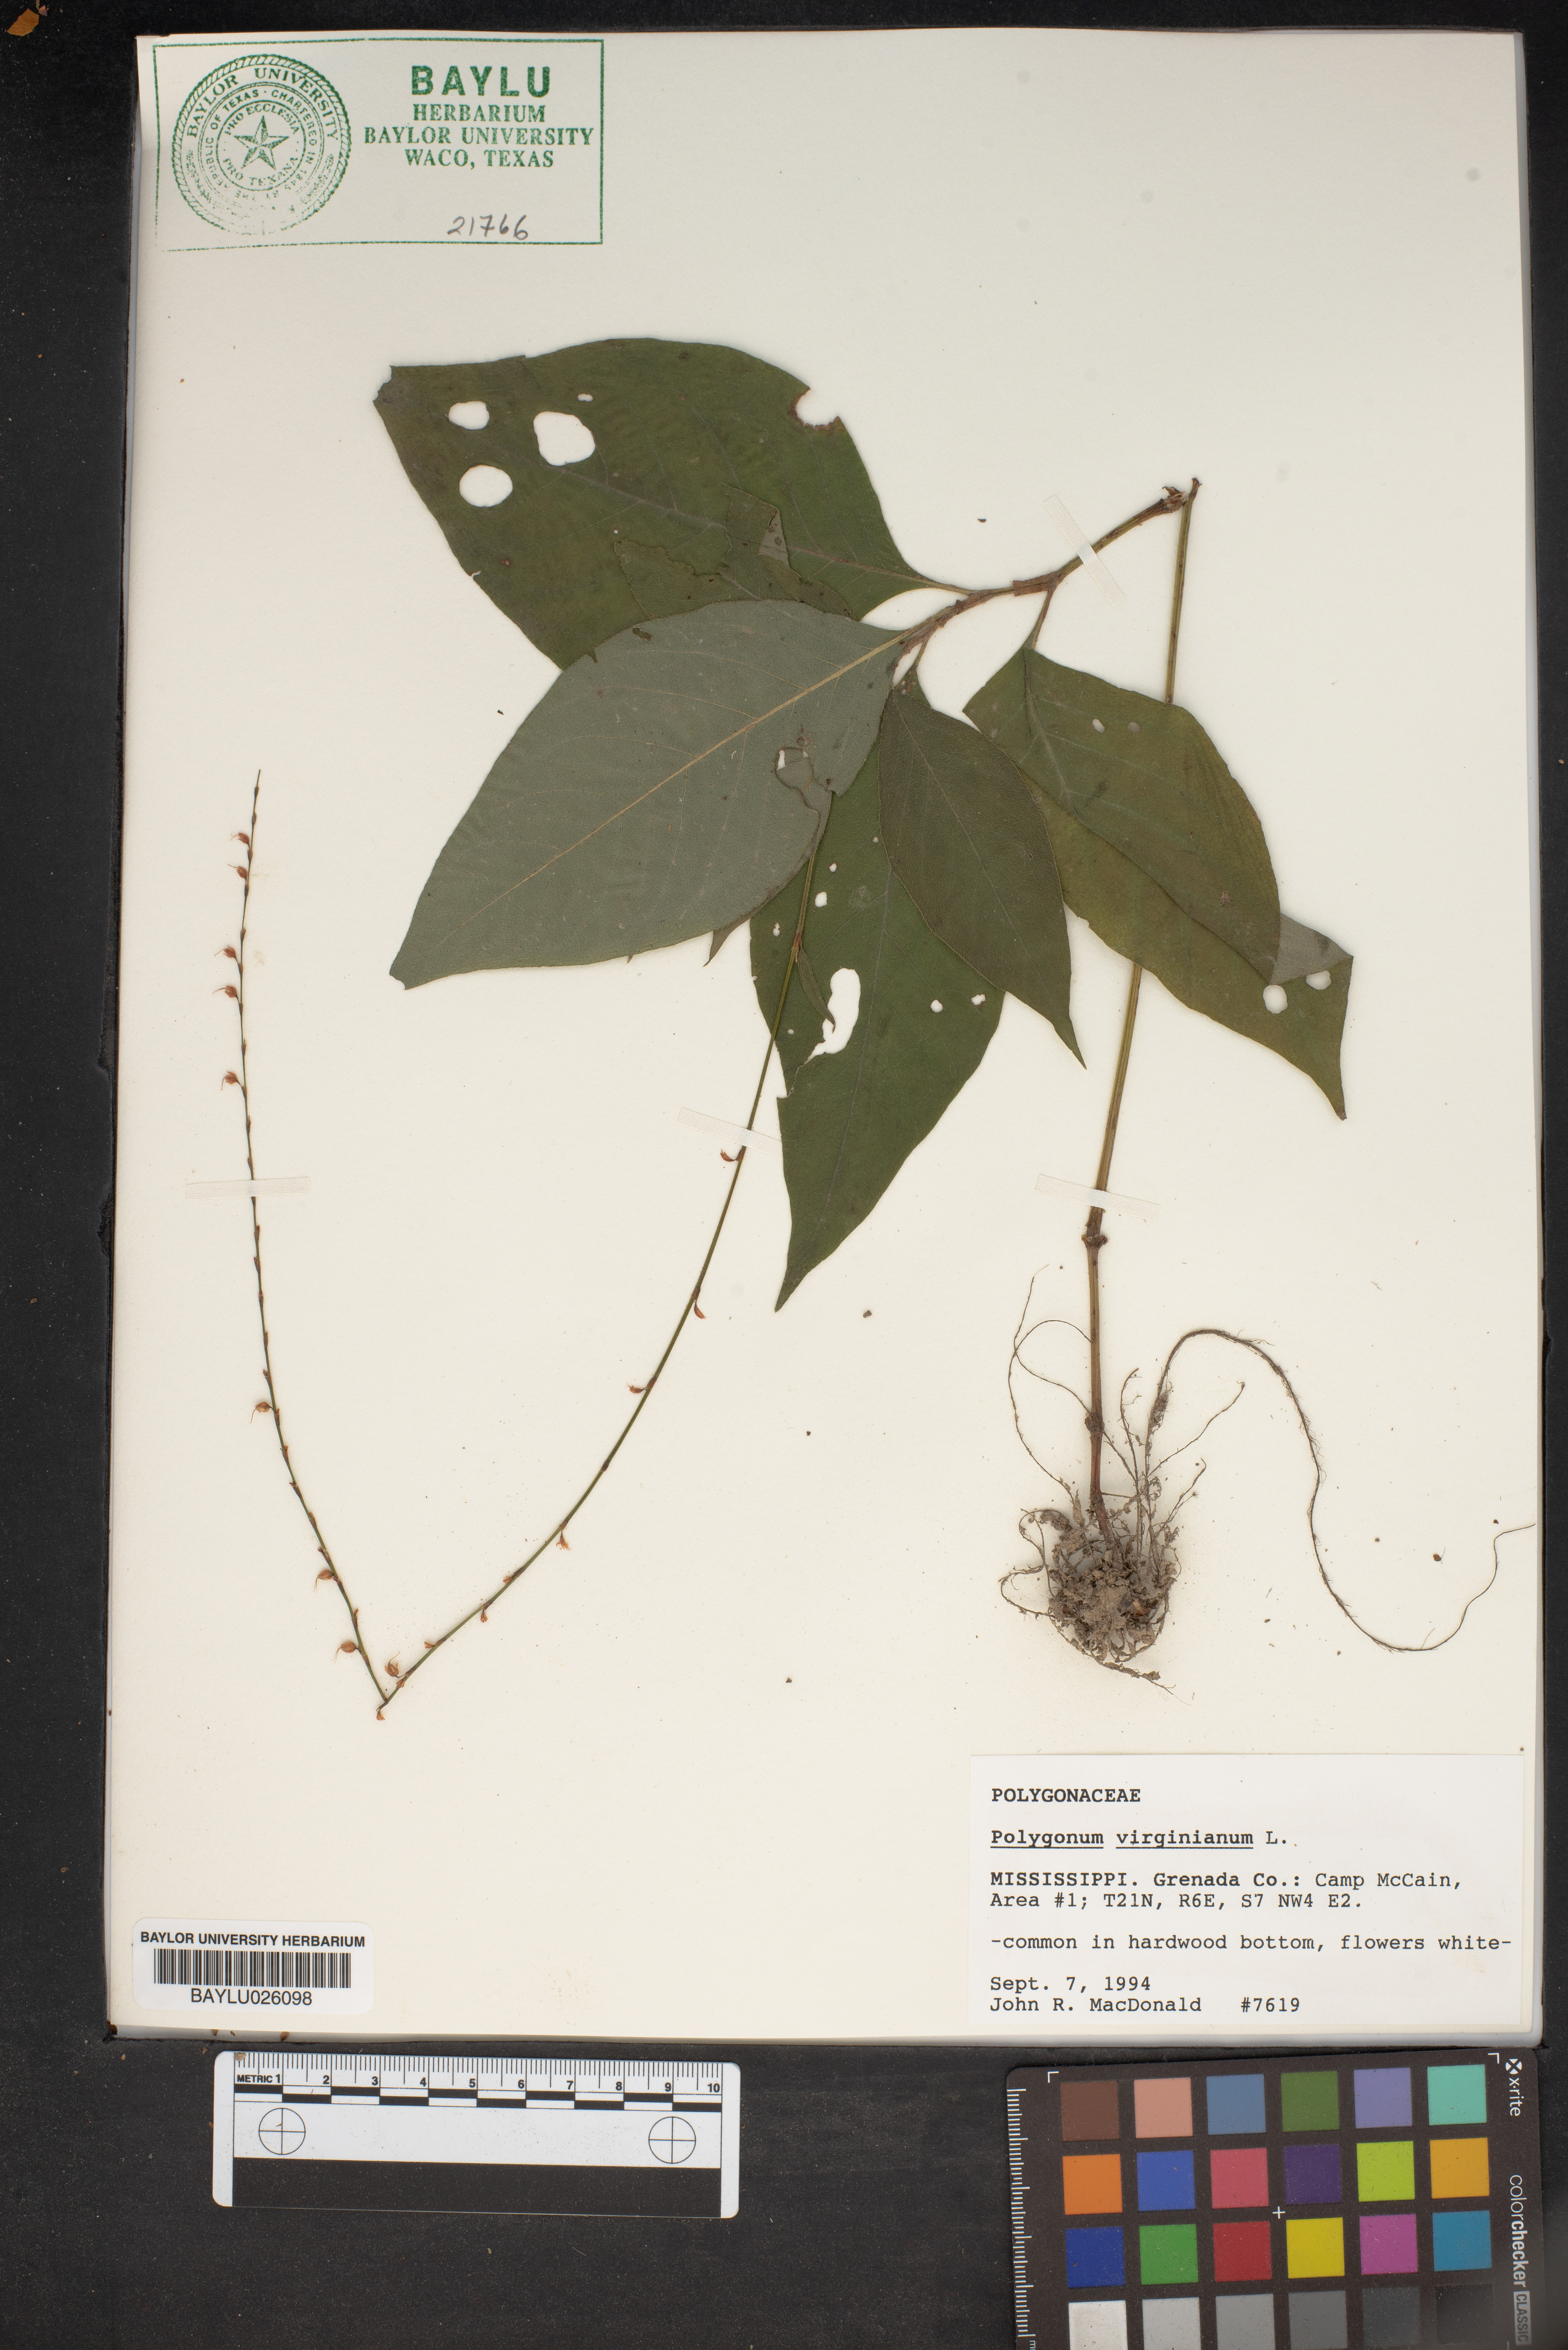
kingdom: Plantae
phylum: Tracheophyta
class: Magnoliopsida
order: Caryophyllales
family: Polygonaceae
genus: Persicaria
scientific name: Persicaria virginiana
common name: Jumpseed
